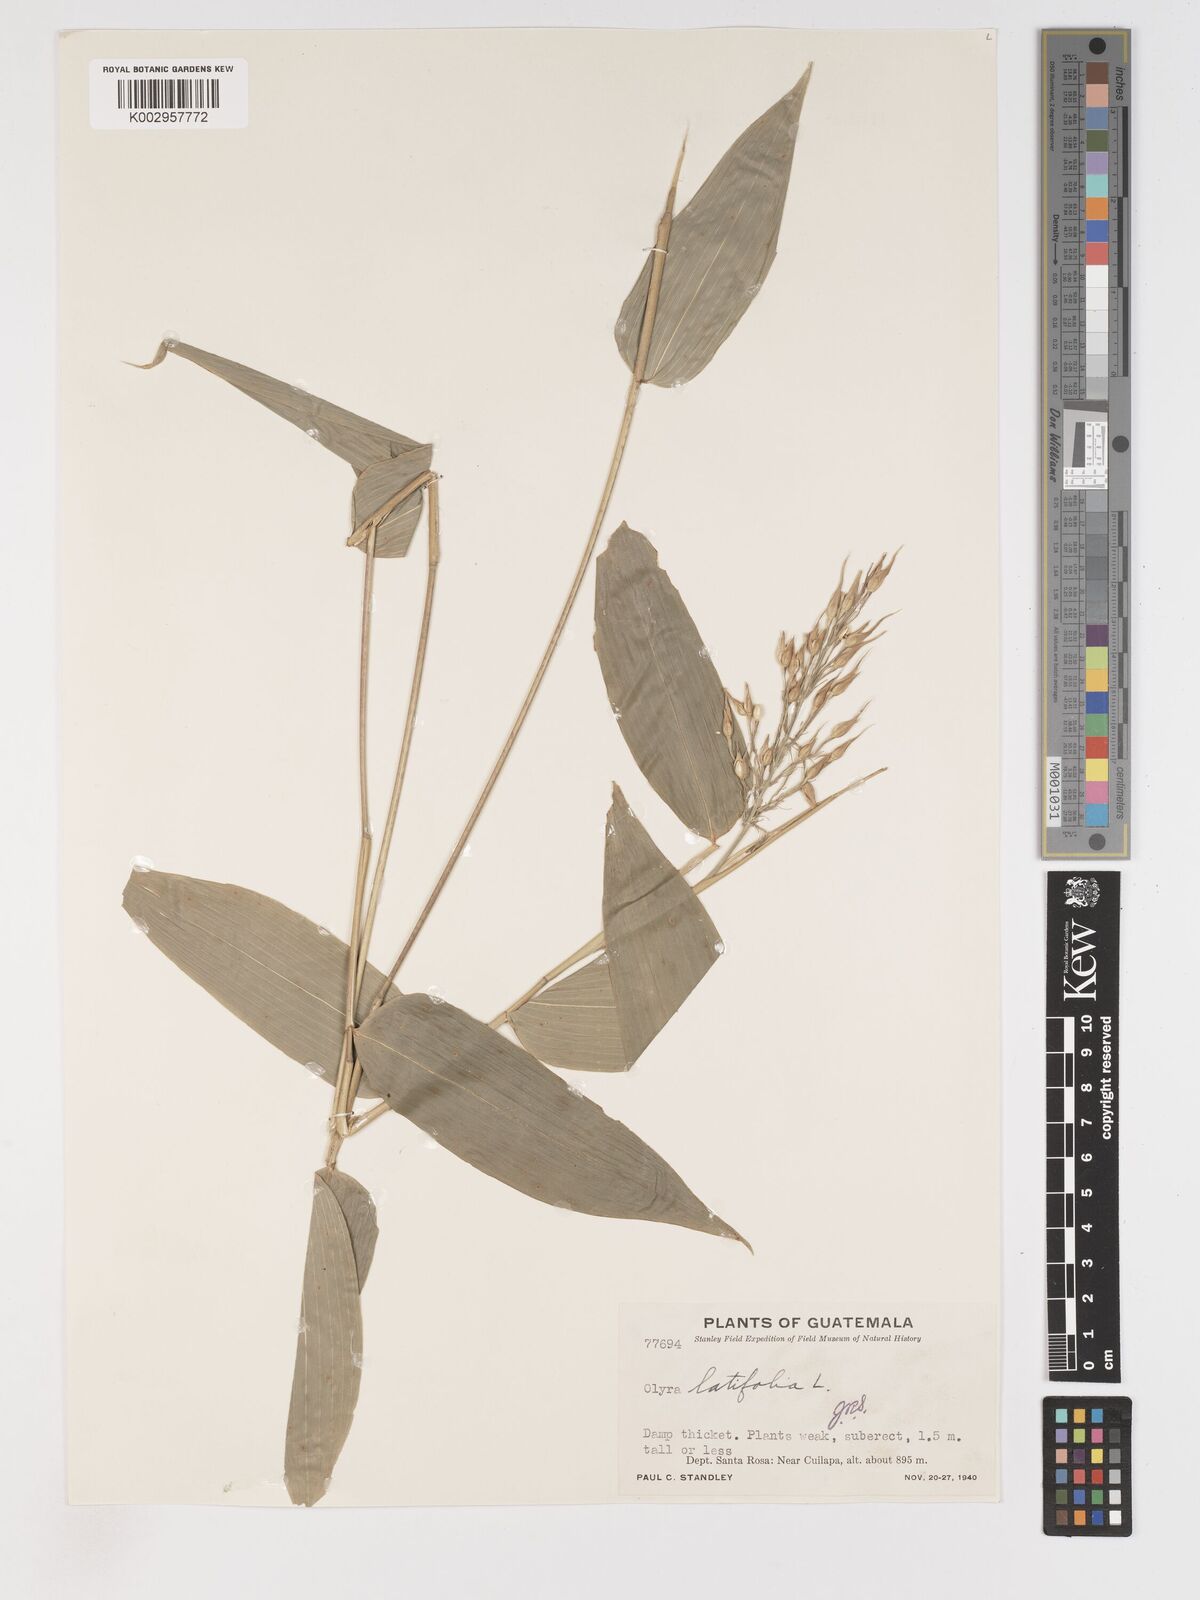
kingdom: Plantae
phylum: Tracheophyta
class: Liliopsida
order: Poales
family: Poaceae
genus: Olyra
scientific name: Olyra latifolia
